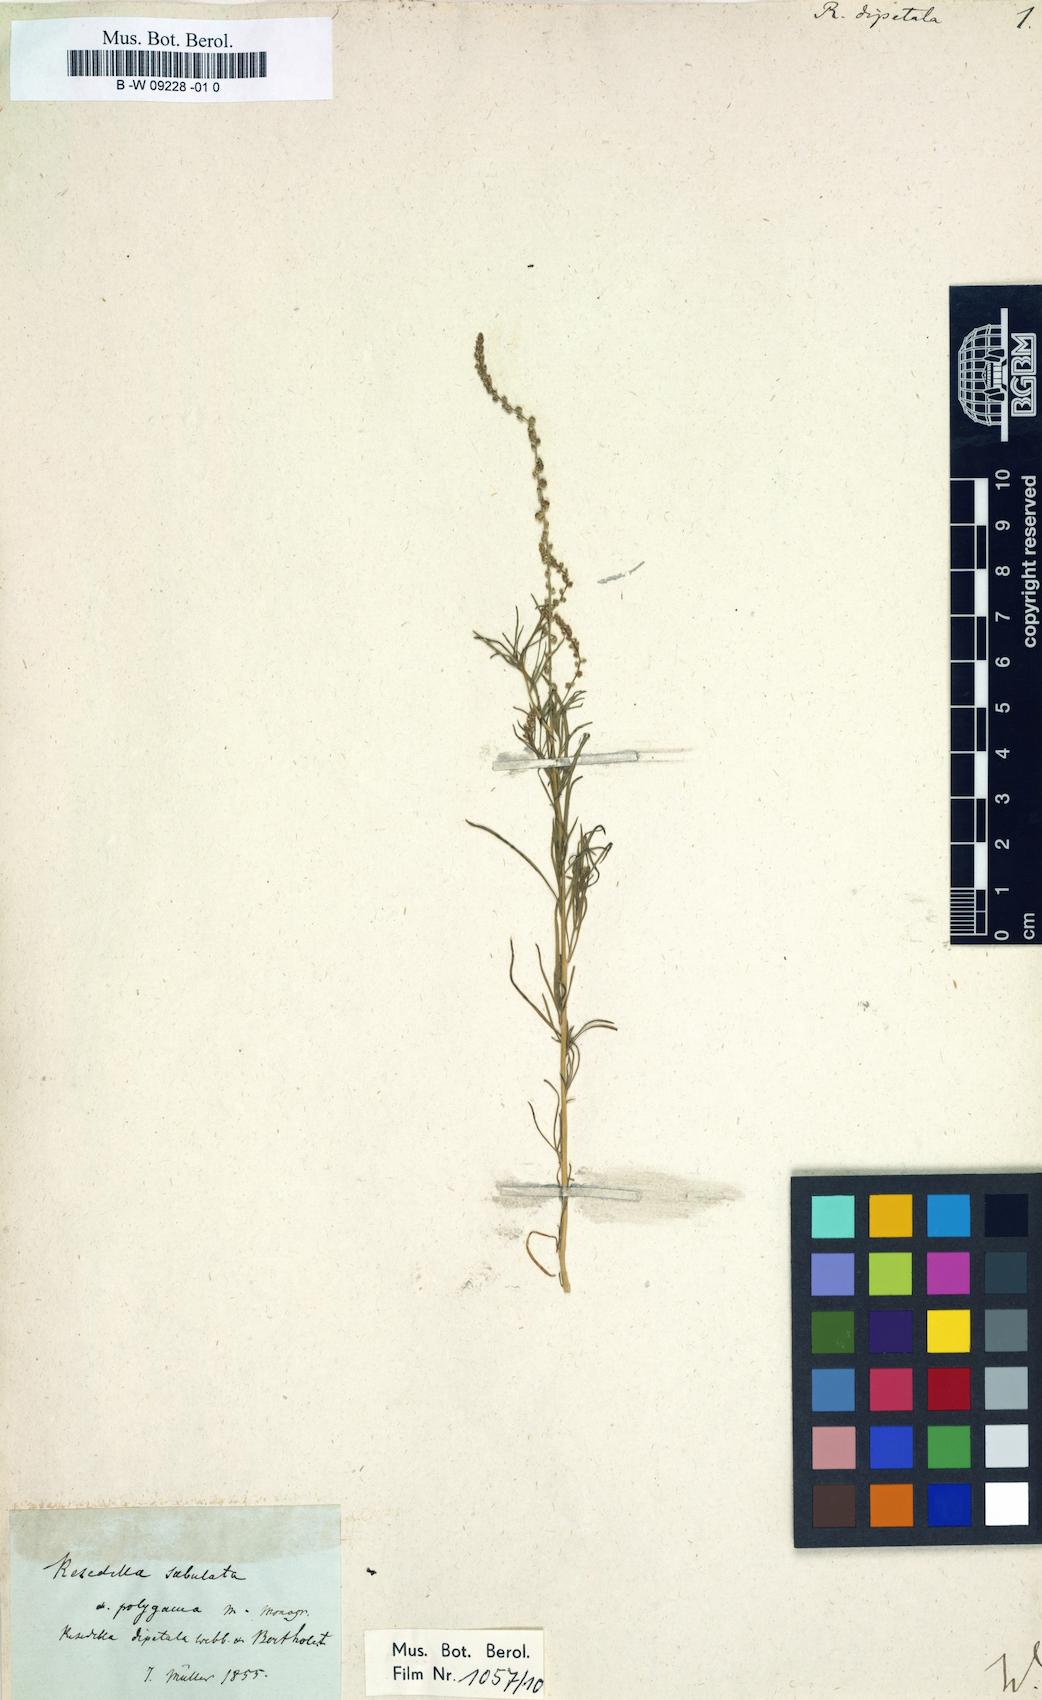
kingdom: Plantae
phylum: Tracheophyta
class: Magnoliopsida
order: Brassicales
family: Resedaceae
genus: Oligomeris
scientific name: Oligomeris
